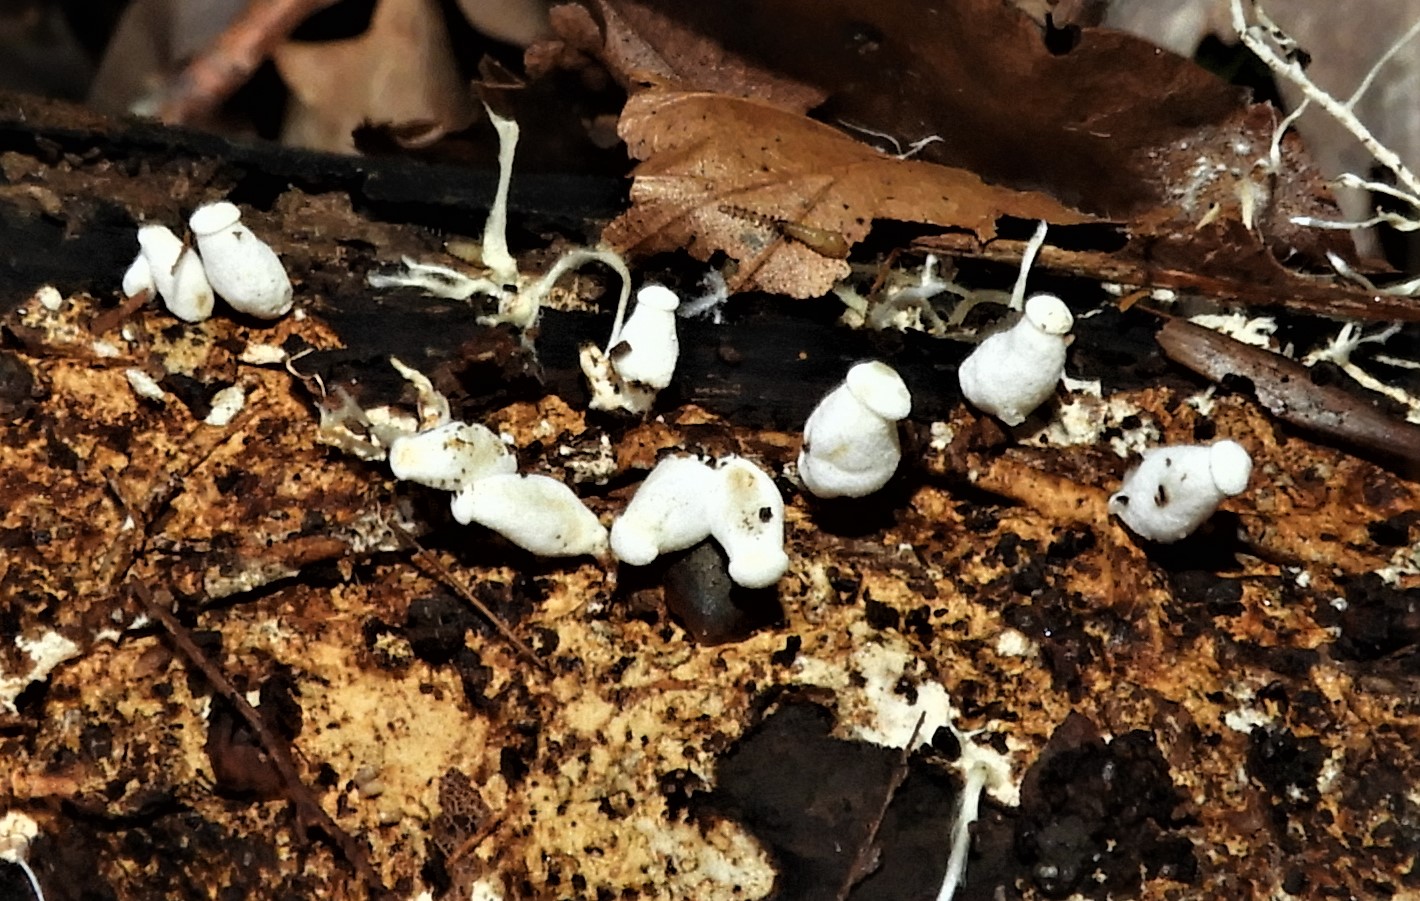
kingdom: Fungi
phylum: Basidiomycota
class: Agaricomycetes
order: Agaricales
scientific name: Agaricales
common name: champignonordenen
